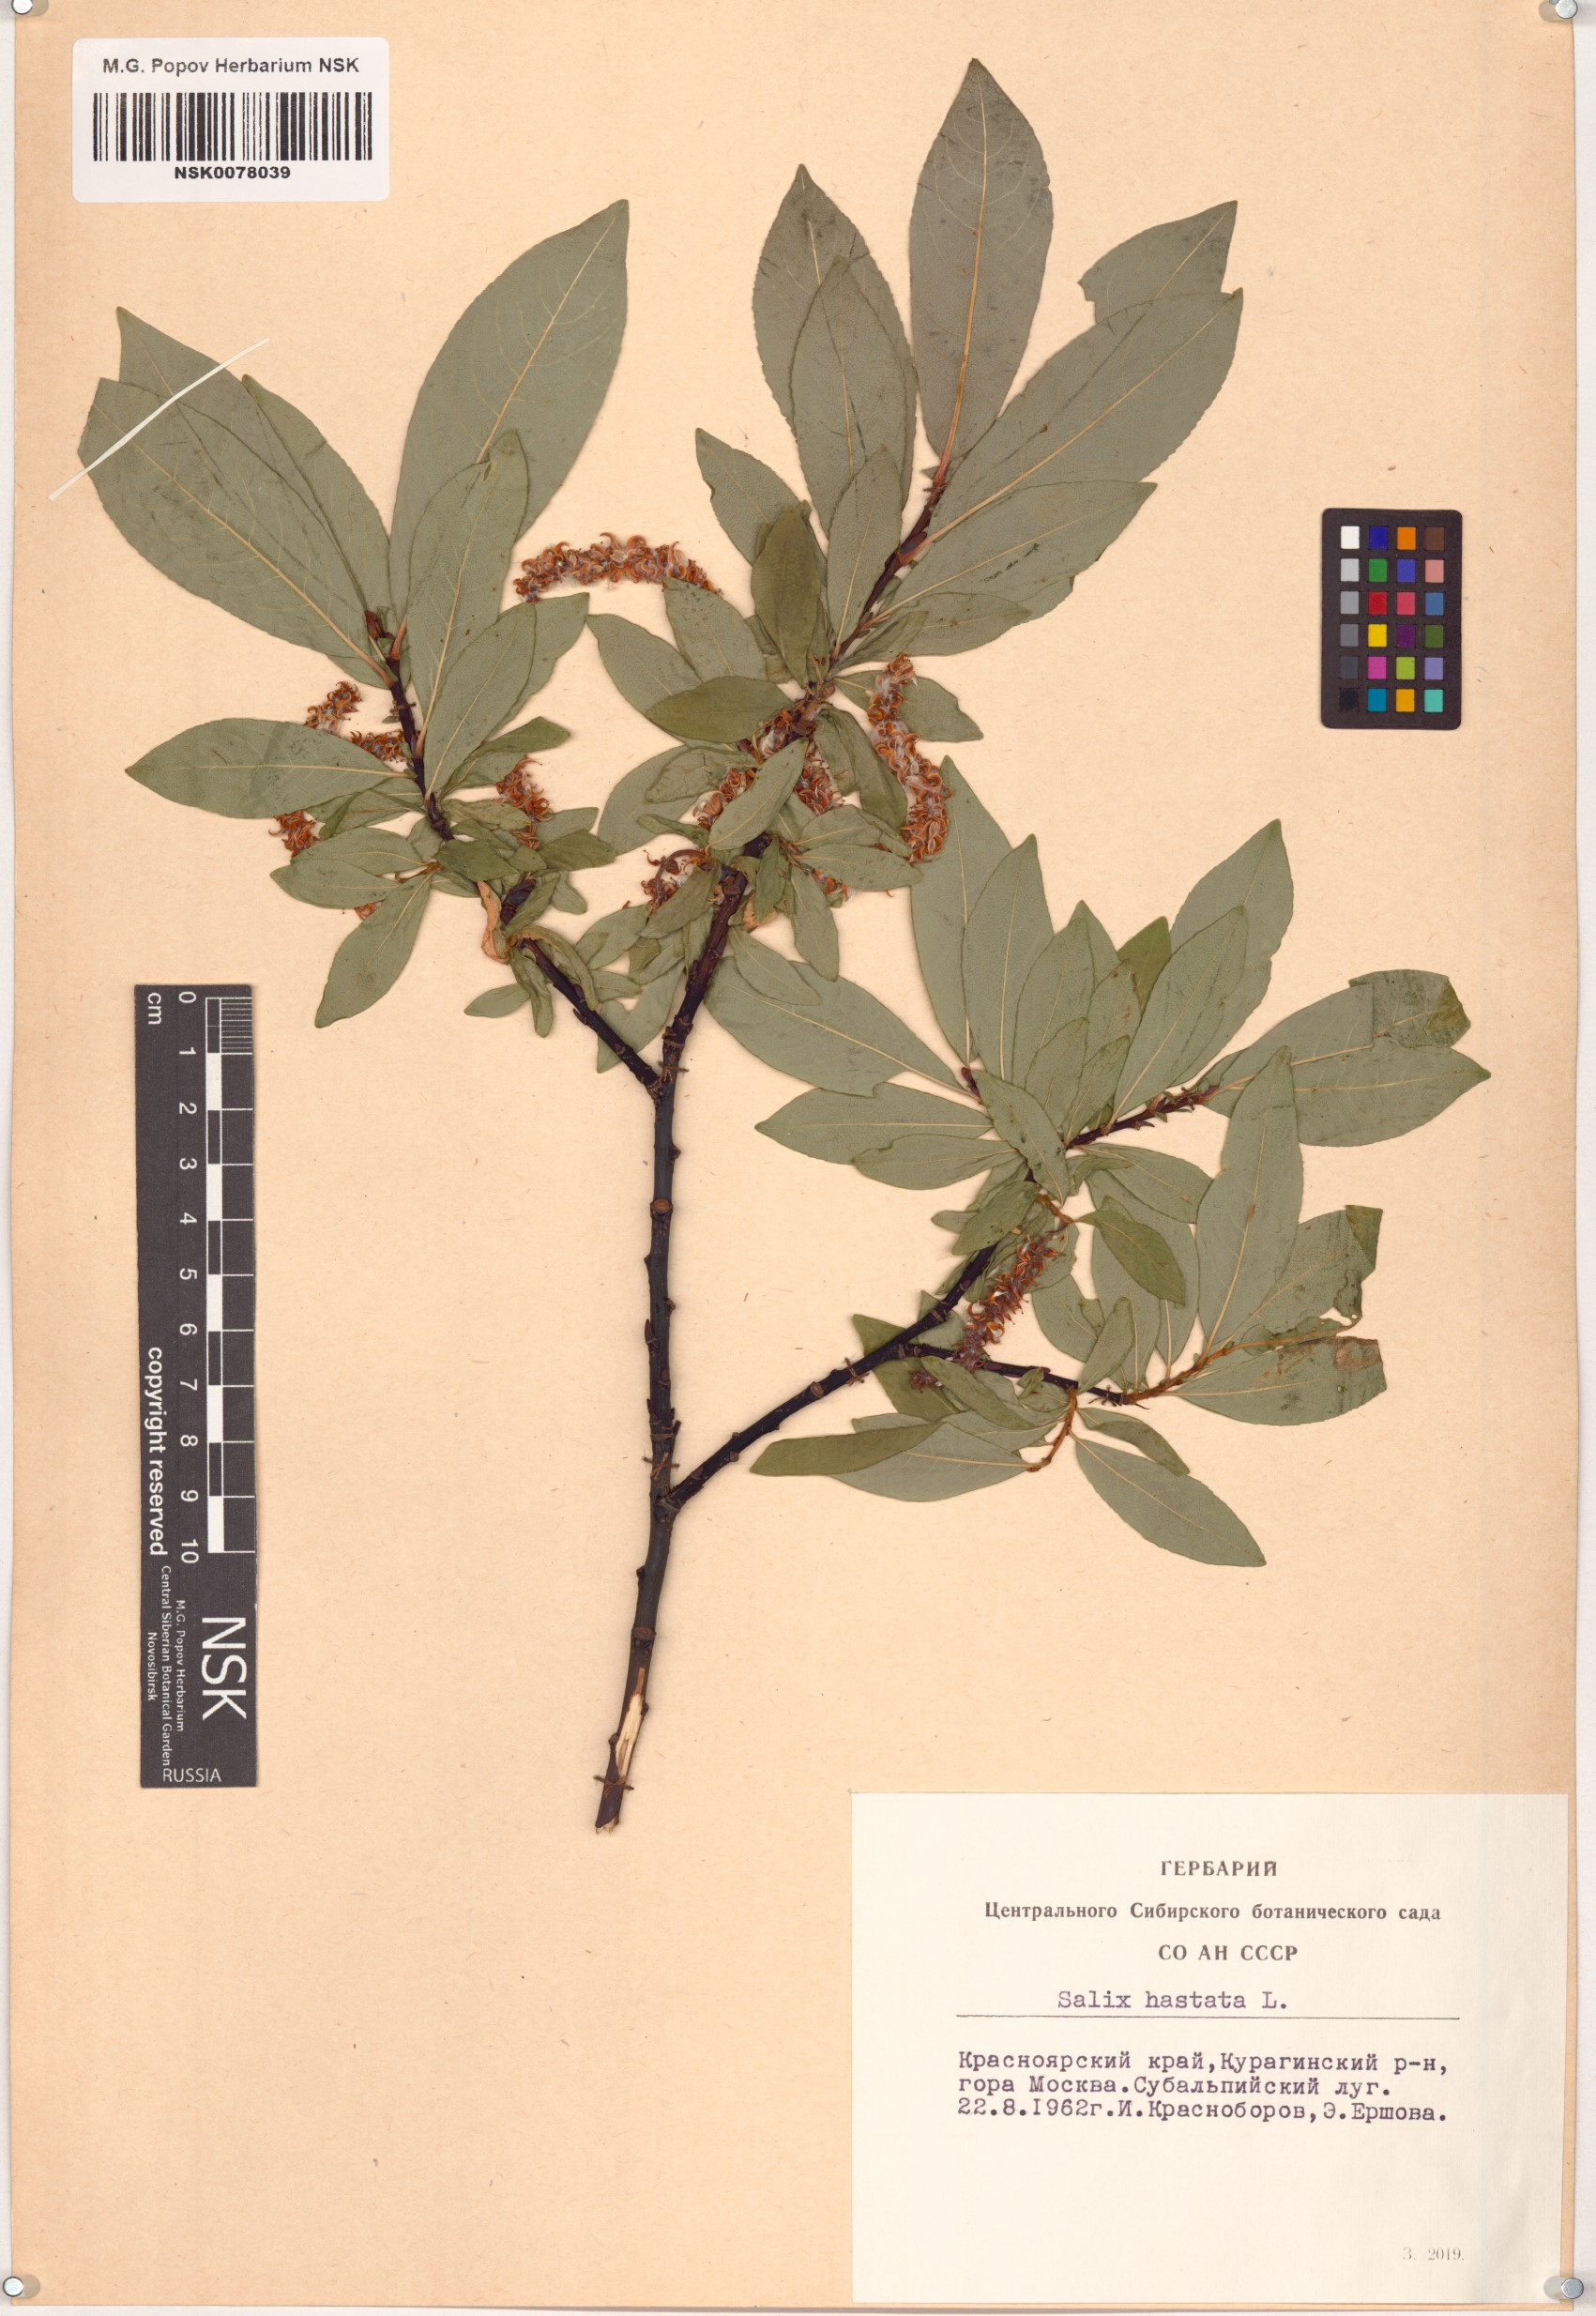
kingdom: Plantae
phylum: Tracheophyta
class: Magnoliopsida
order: Malpighiales
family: Salicaceae
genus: Salix
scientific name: Salix hastata
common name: Halberd willow
